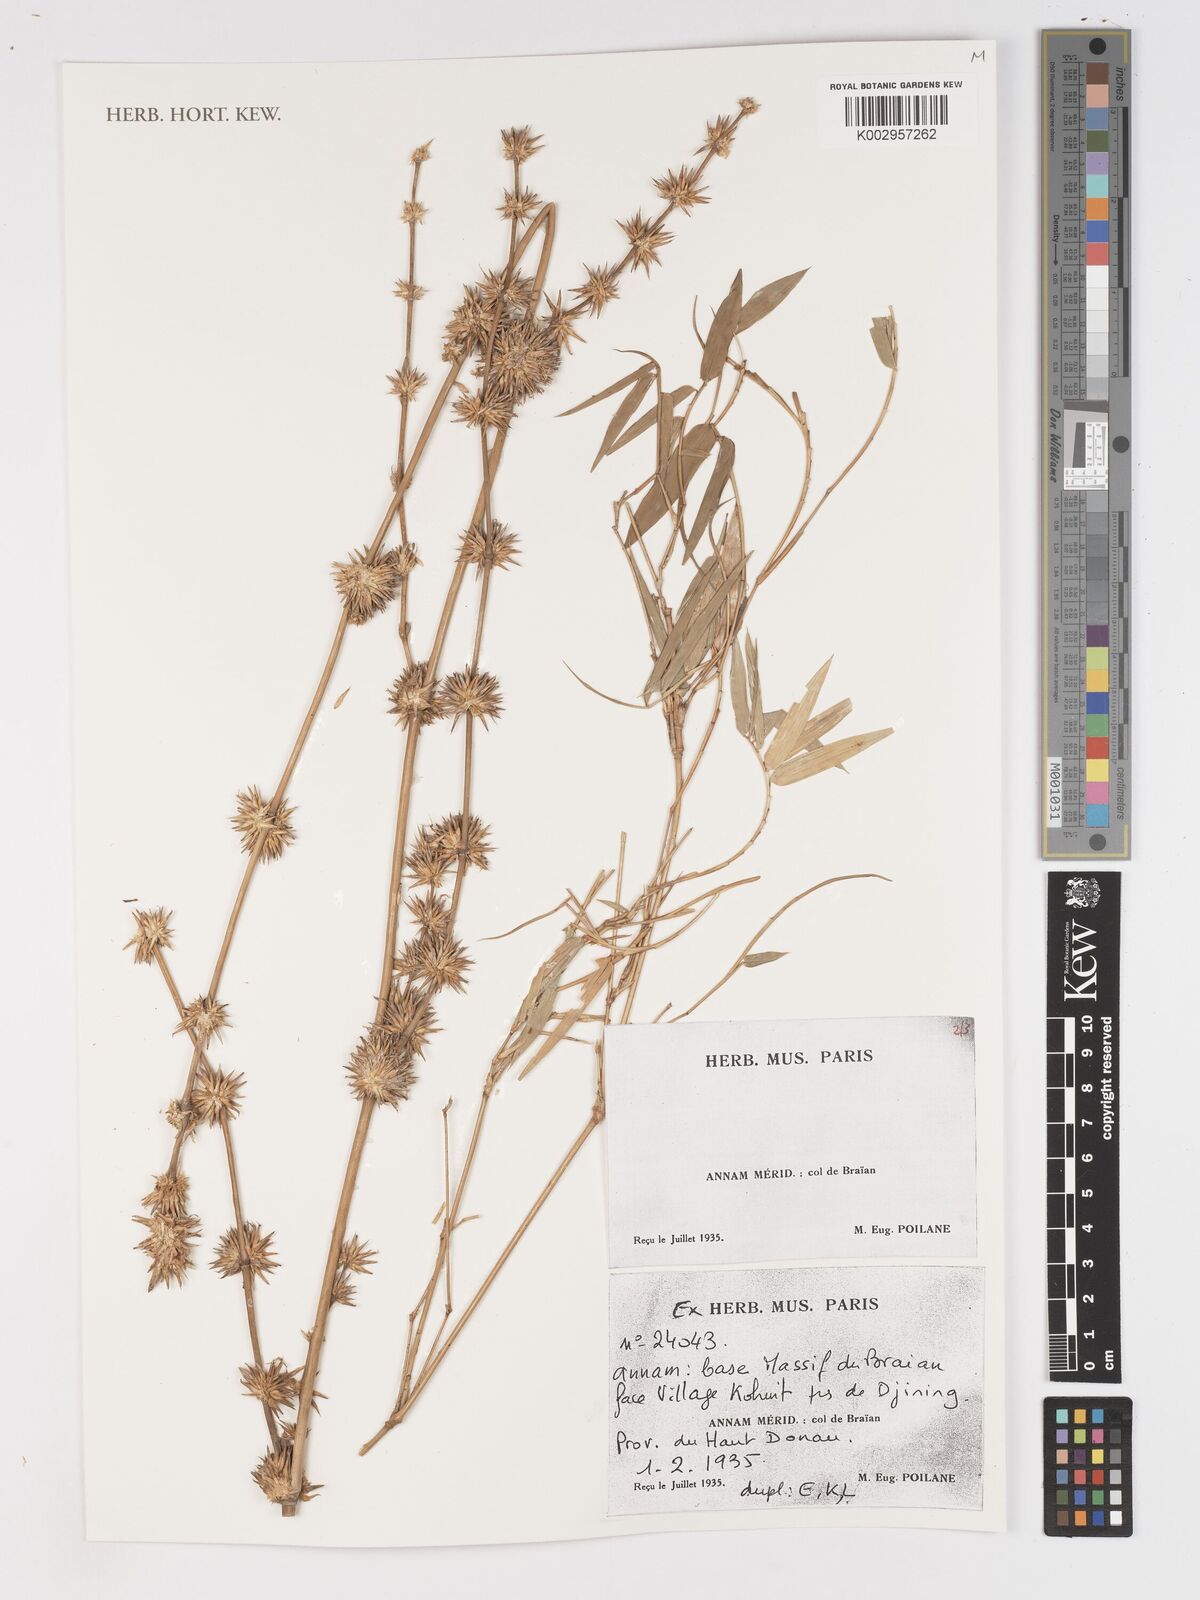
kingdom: Plantae
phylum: Tracheophyta
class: Liliopsida
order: Poales
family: Poaceae
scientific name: Poaceae
